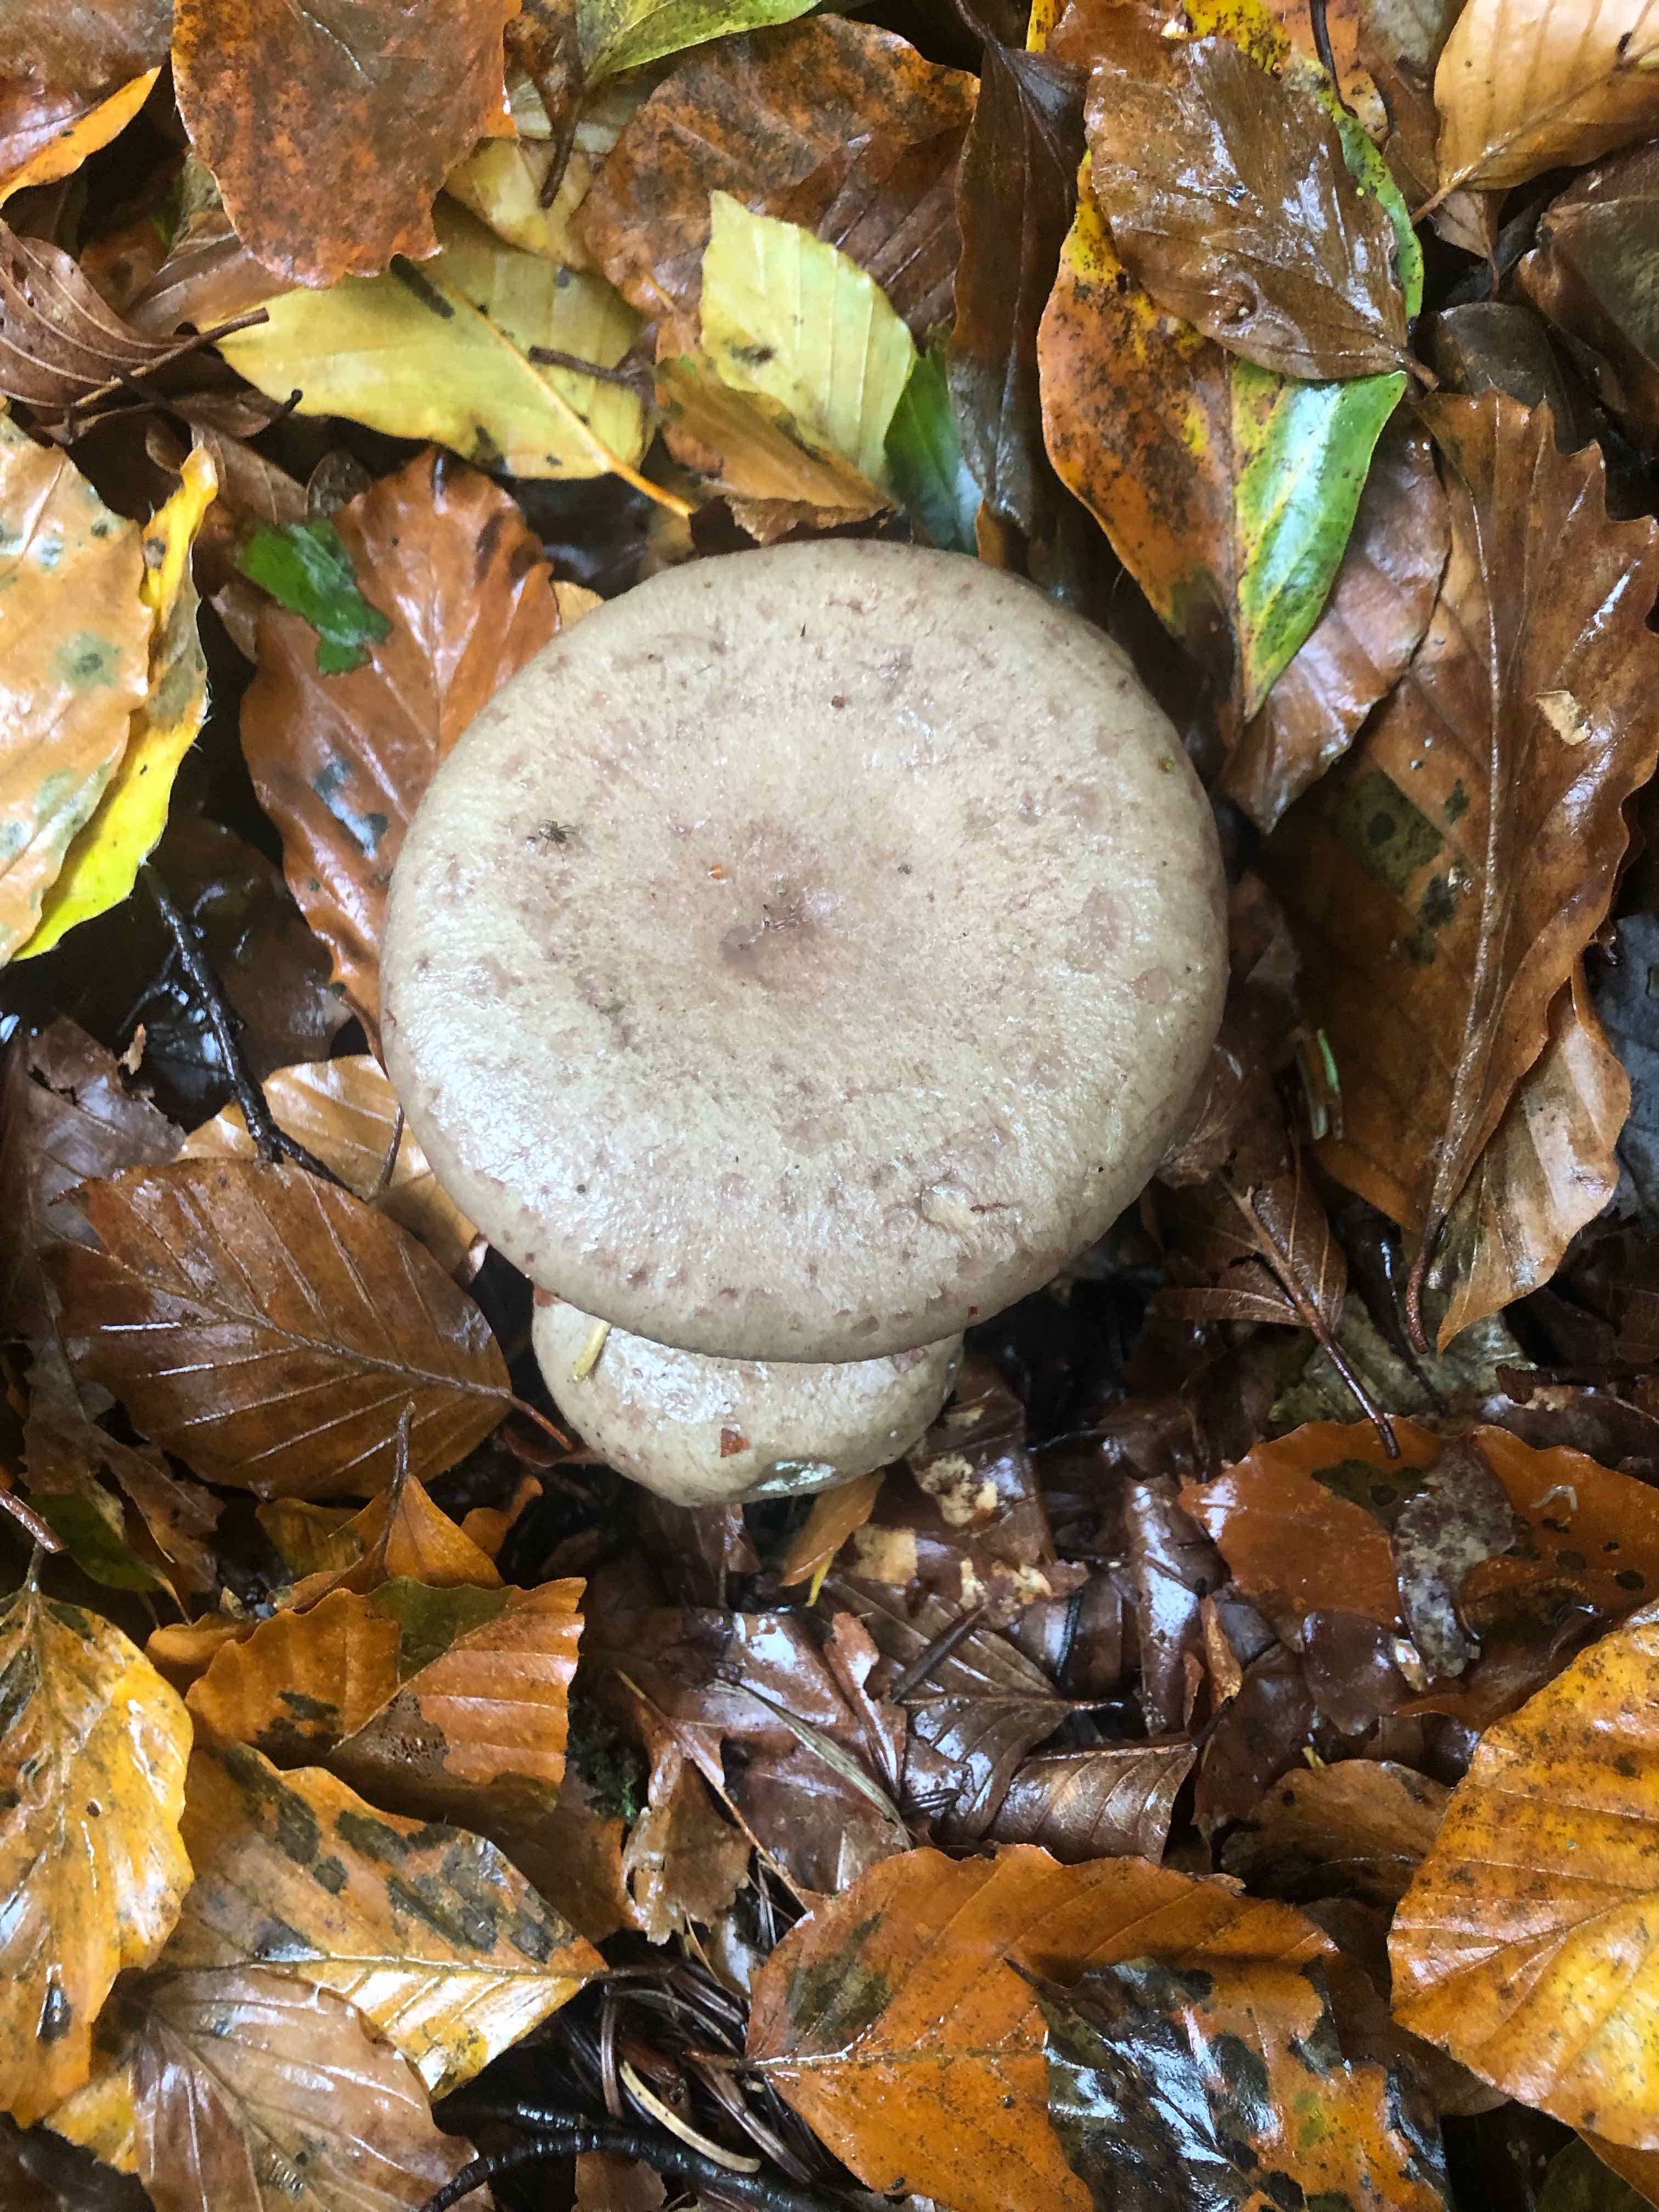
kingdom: Fungi
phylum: Basidiomycota
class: Agaricomycetes
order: Russulales
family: Russulaceae
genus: Lactarius
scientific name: Lactarius blennius
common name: dråbeplettet mælkehat
